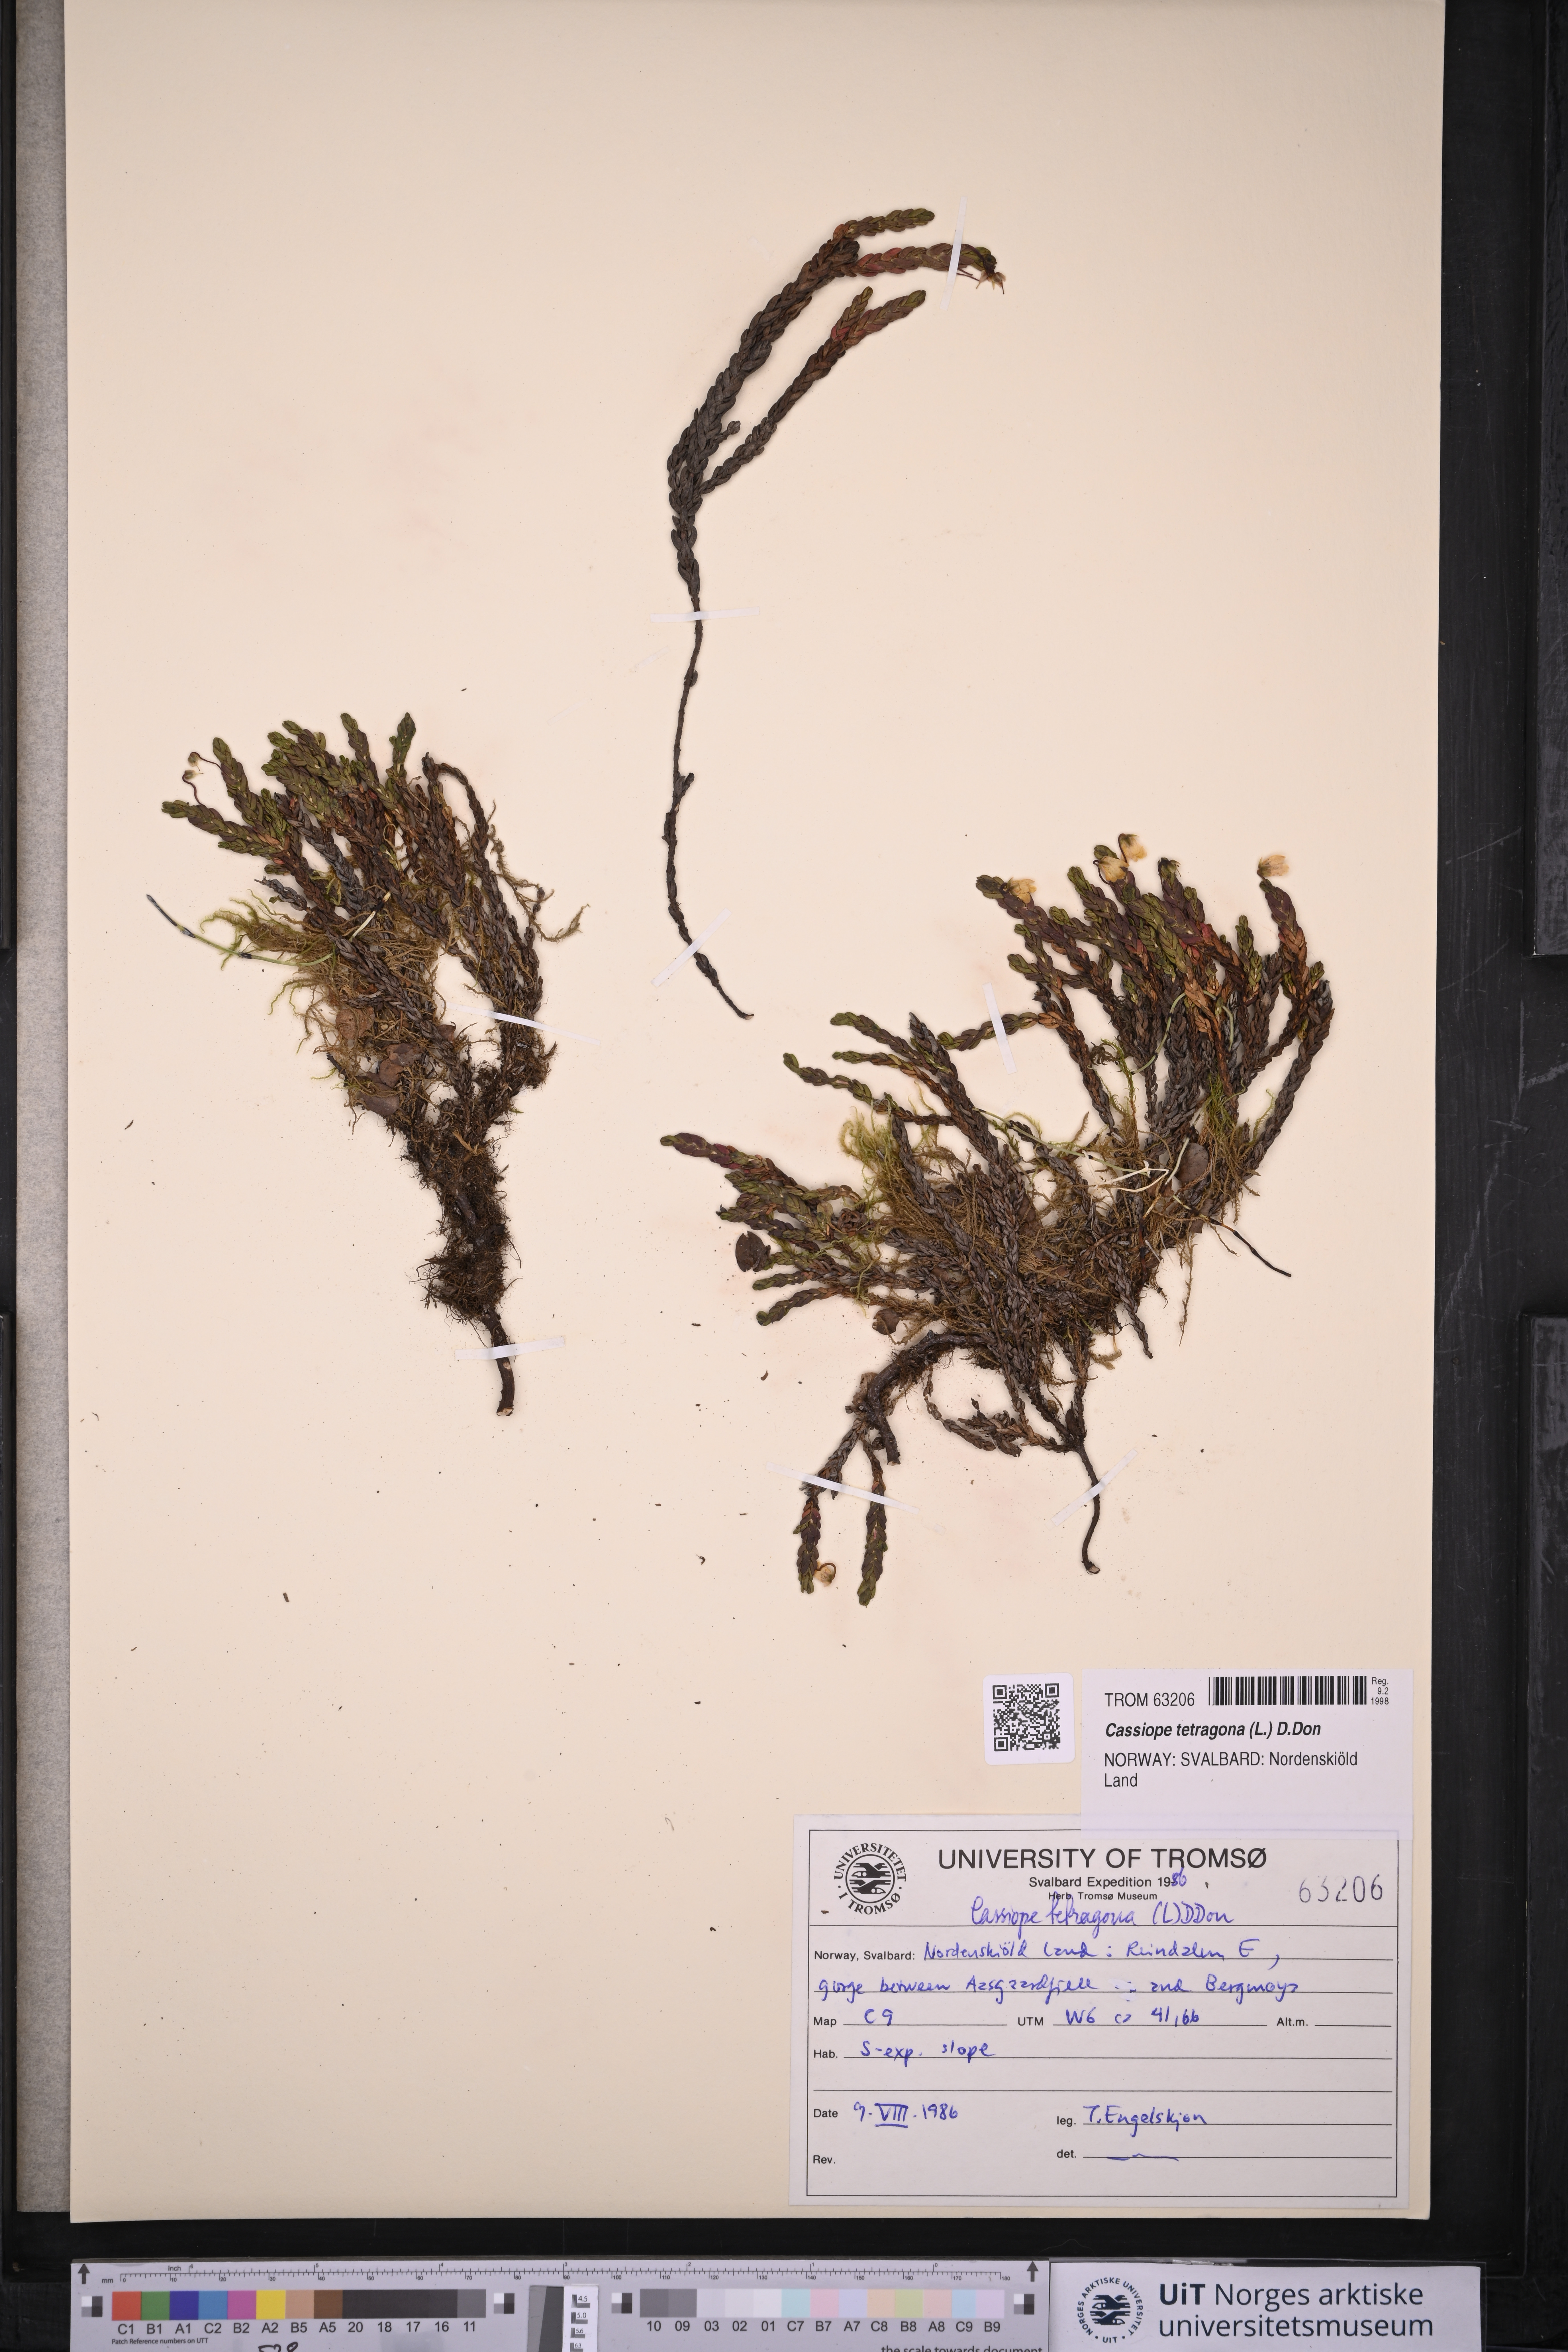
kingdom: Plantae
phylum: Tracheophyta
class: Magnoliopsida
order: Ericales
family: Ericaceae
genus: Cassiope
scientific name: Cassiope tetragona
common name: Arctic bell heather
